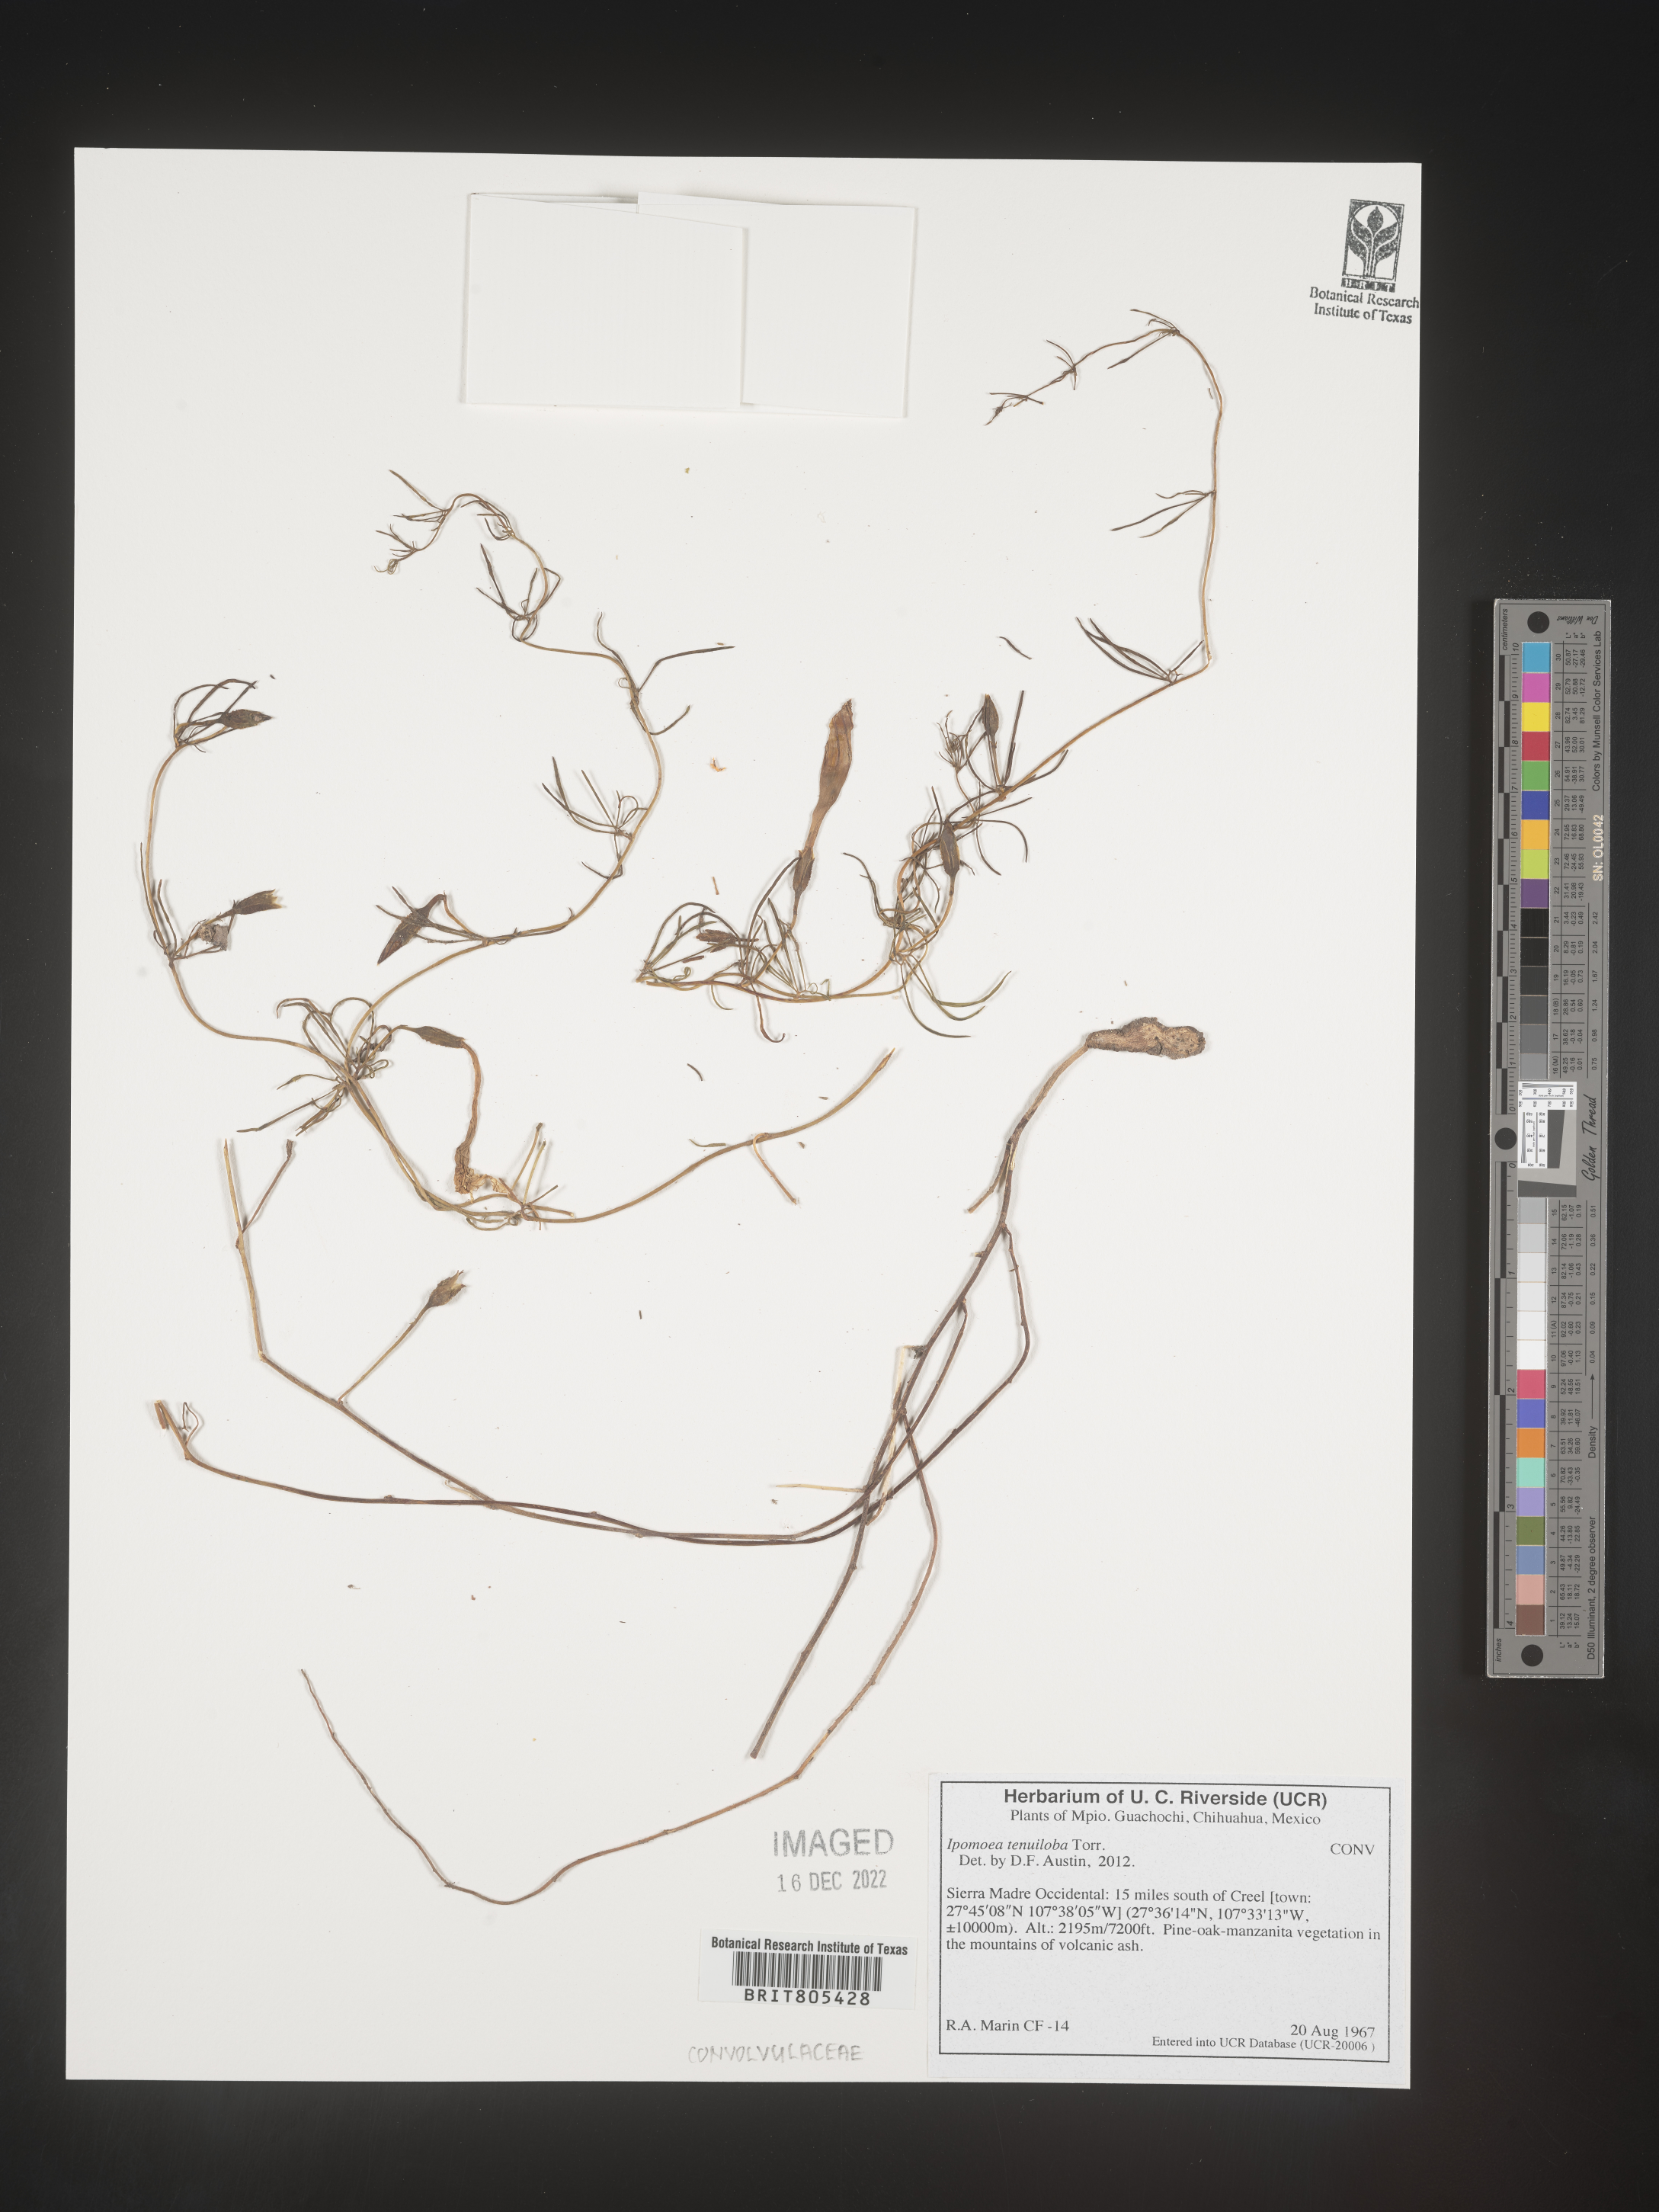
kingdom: Plantae
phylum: Tracheophyta
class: Magnoliopsida
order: Solanales
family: Convolvulaceae
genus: Ipomoea
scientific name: Ipomoea
